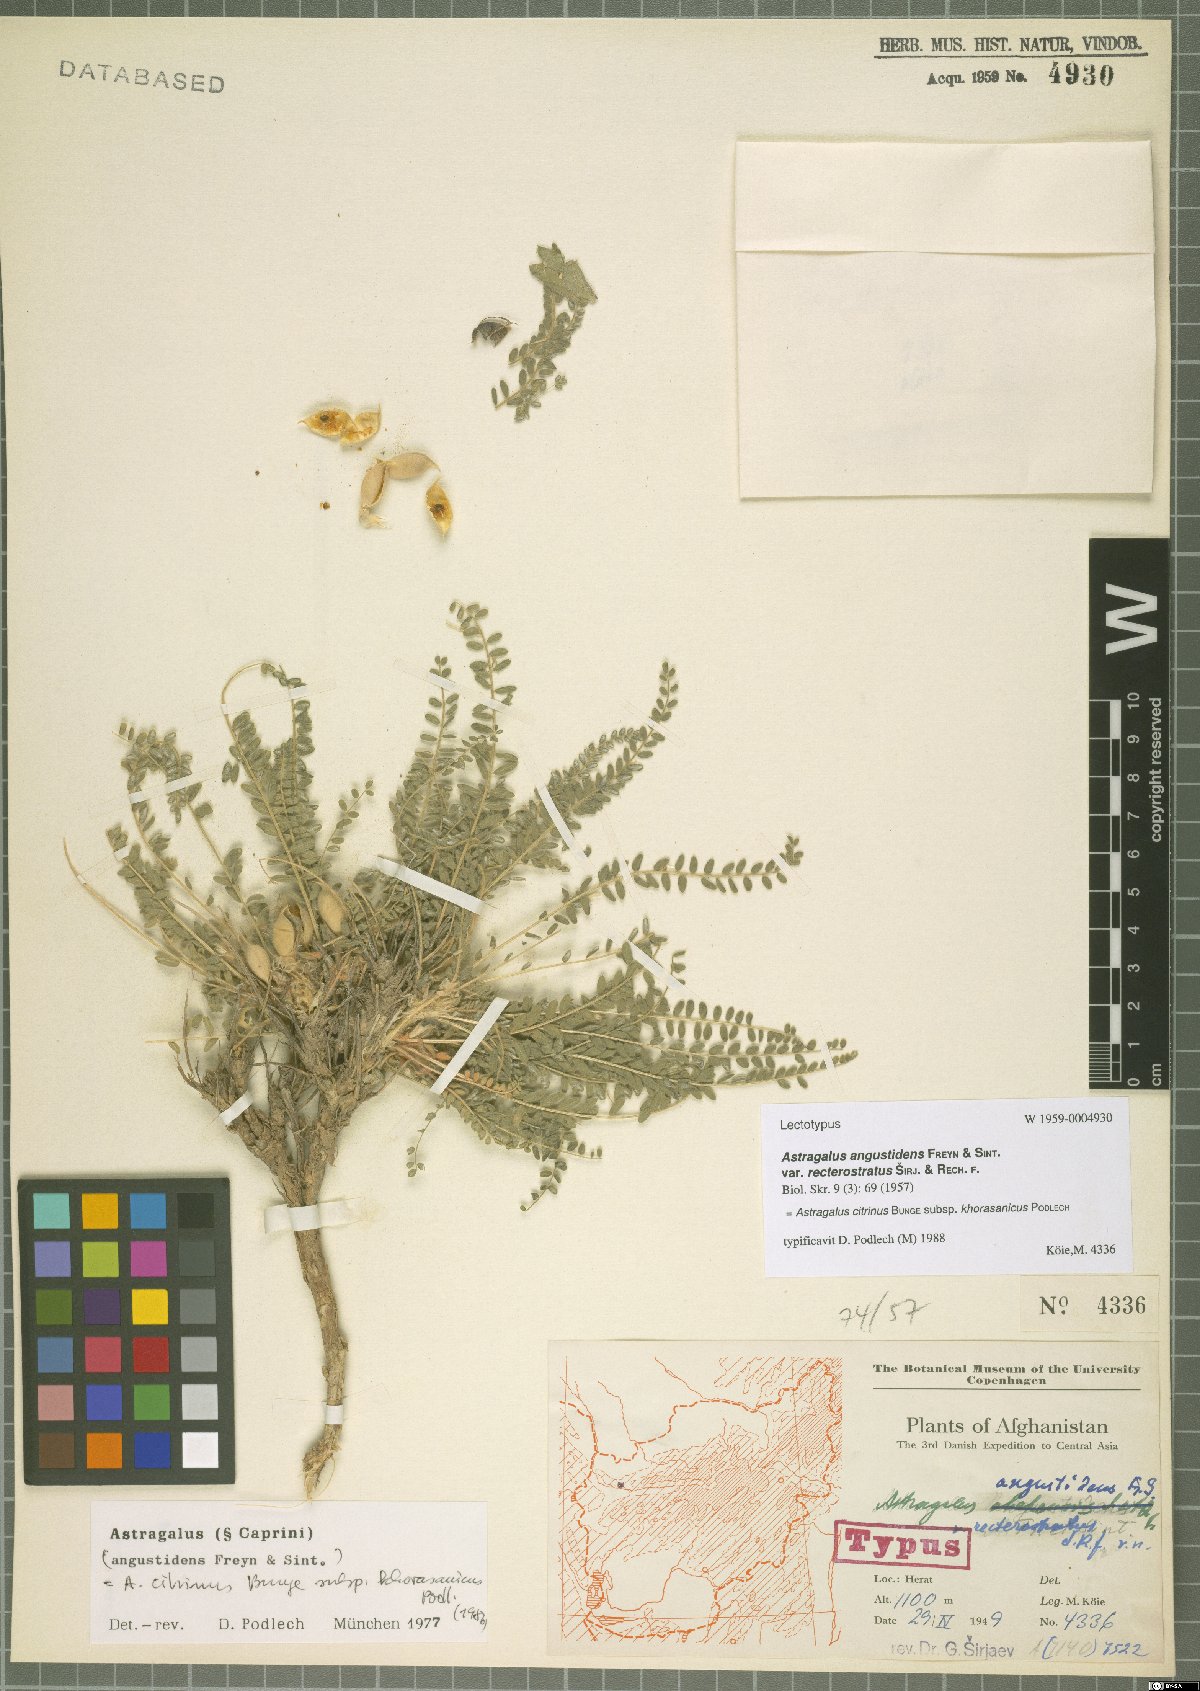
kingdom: Plantae
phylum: Tracheophyta
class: Magnoliopsida
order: Fabales
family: Fabaceae
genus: Astragalus
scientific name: Astragalus citrinus
